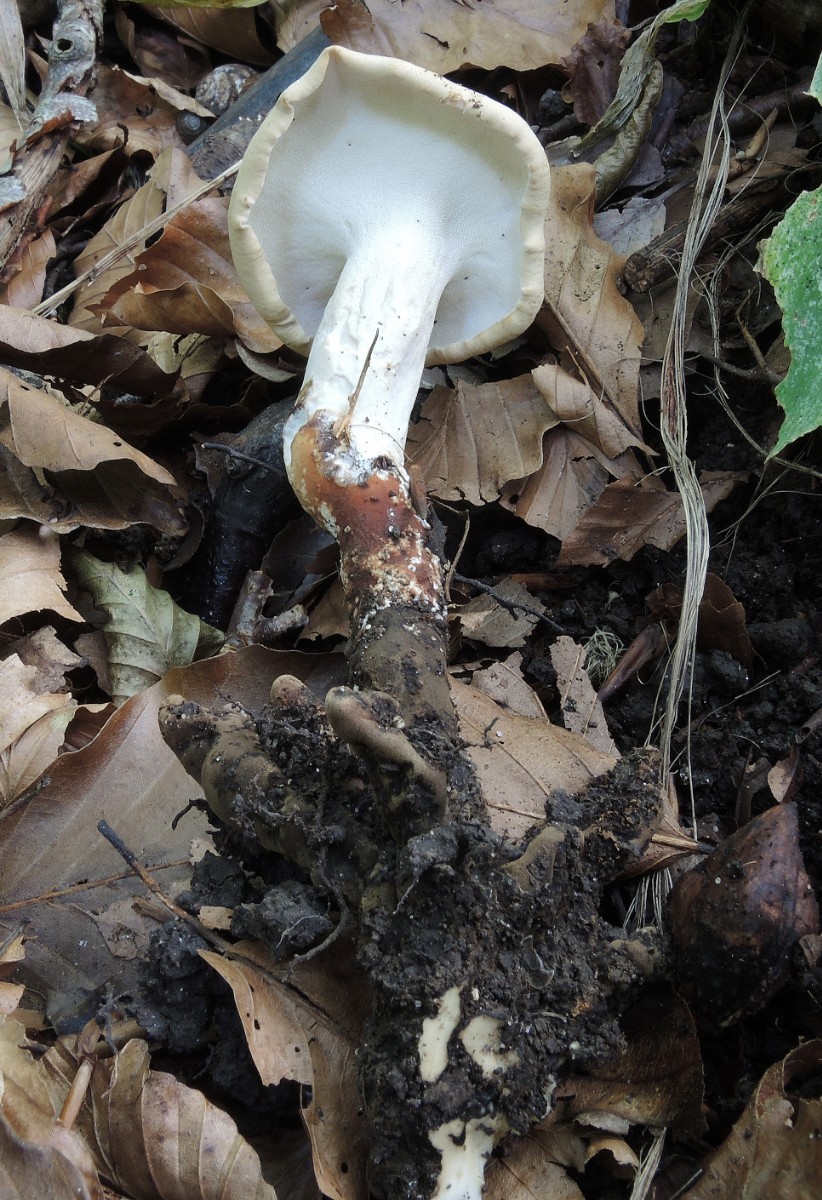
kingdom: Fungi
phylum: Basidiomycota
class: Agaricomycetes
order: Polyporales
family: Polyporaceae
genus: Picipes
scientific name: Picipes melanopus
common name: sortfodet stilkporesvamp
